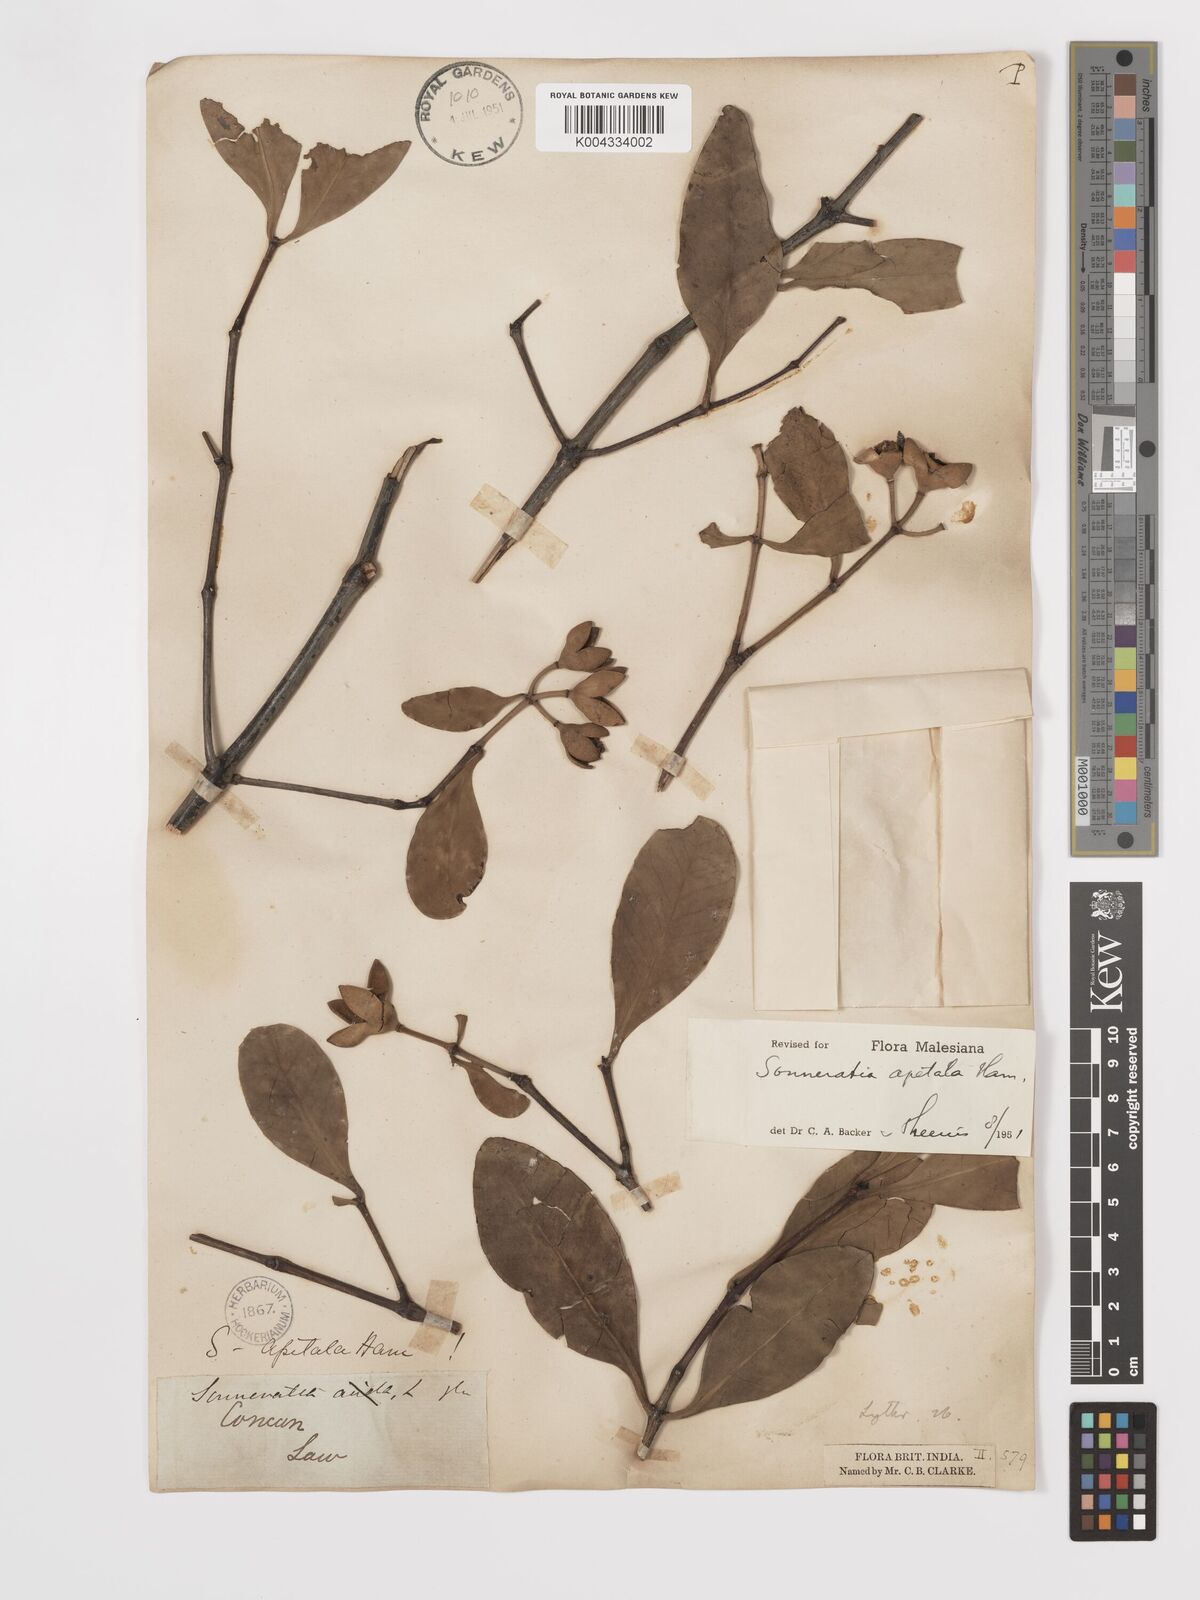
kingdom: Plantae
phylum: Tracheophyta
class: Magnoliopsida
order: Myrtales
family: Lythraceae
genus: Sonneratia
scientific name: Sonneratia apetala
